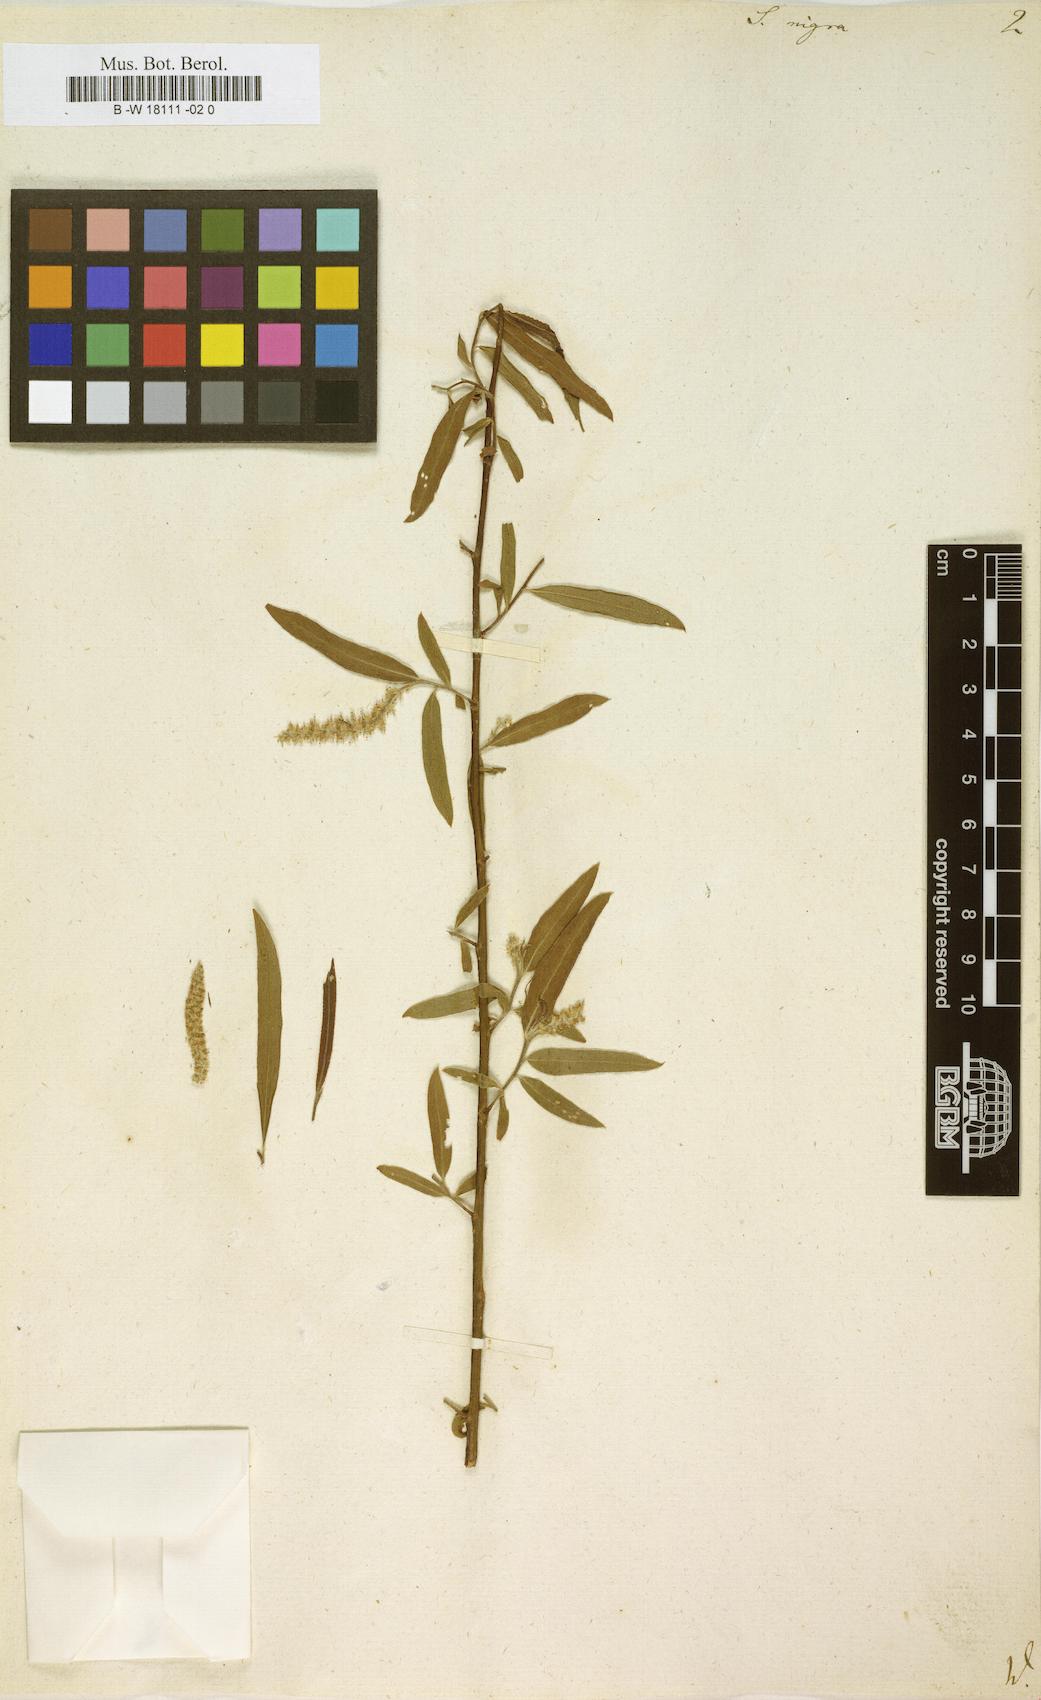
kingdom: Plantae
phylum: Tracheophyta
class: Magnoliopsida
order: Malpighiales
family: Salicaceae
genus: Salix
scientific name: Salix nigra
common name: Black willow
